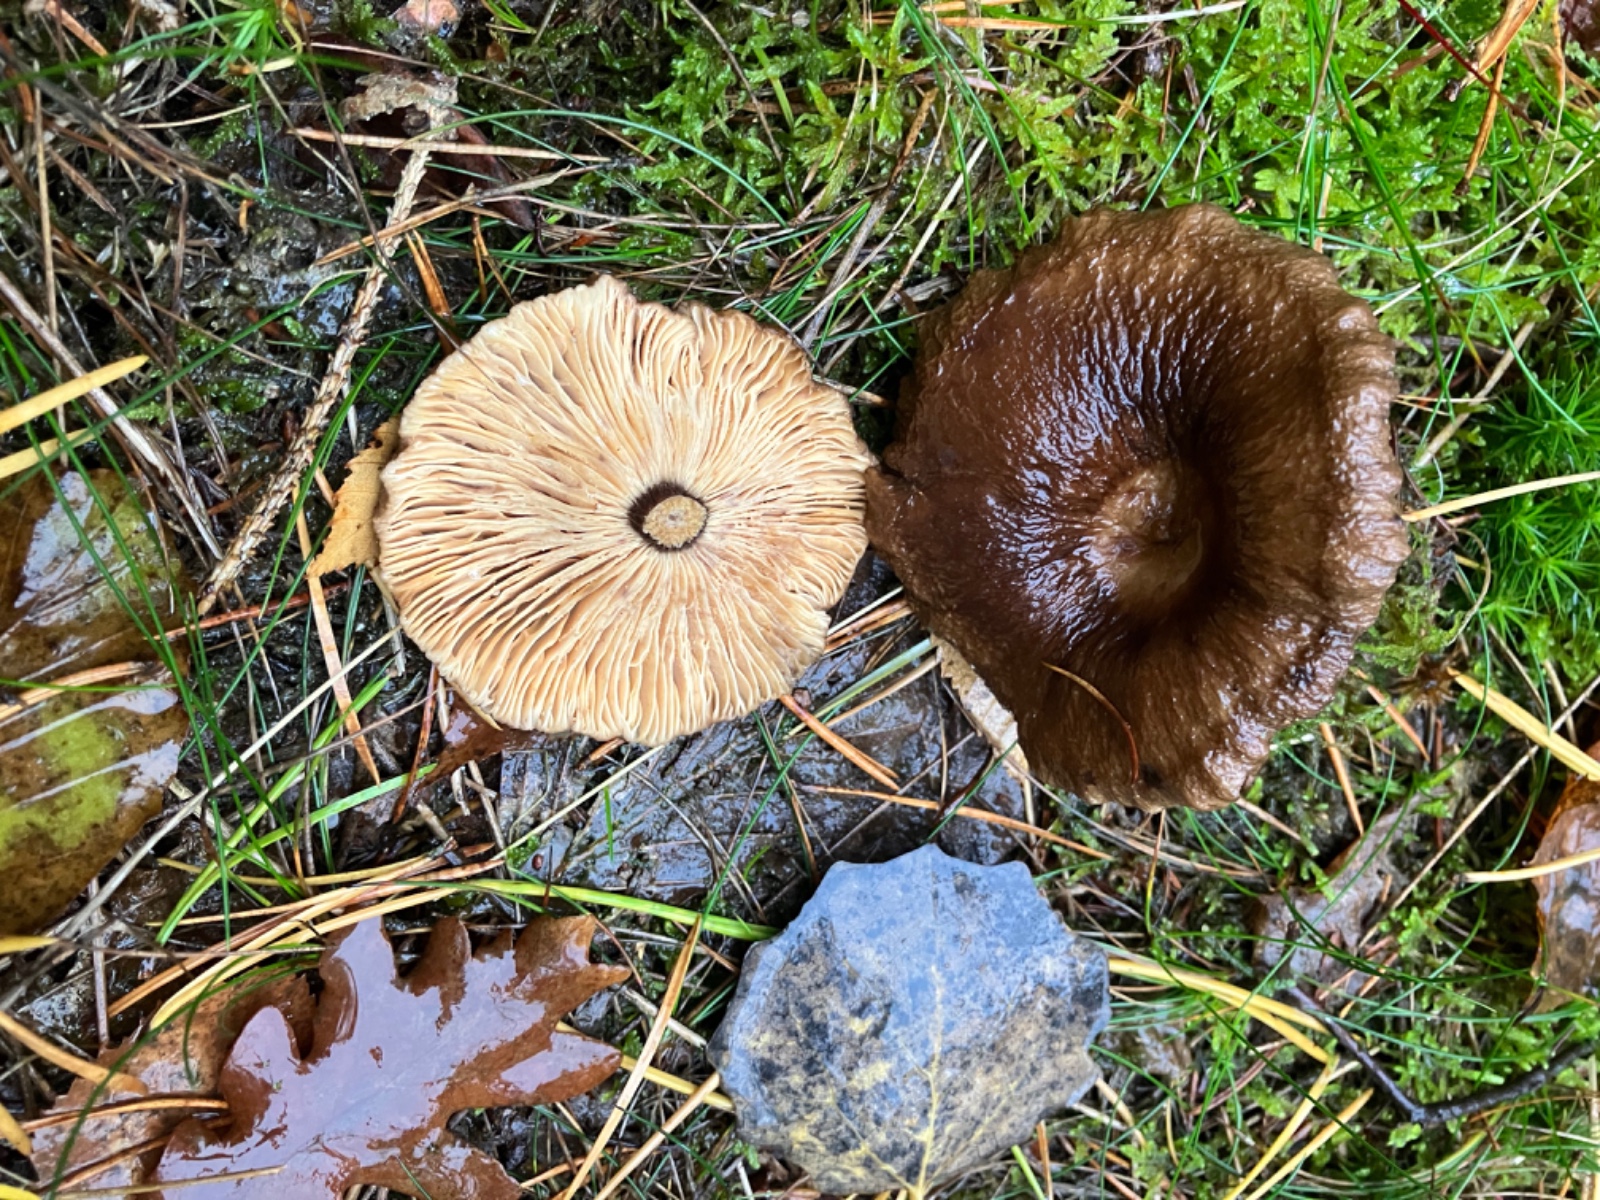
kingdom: Fungi
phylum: Basidiomycota
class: Agaricomycetes
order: Russulales
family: Russulaceae
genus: Lactarius
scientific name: Lactarius lignyotus
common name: fløjls-mælkehat
